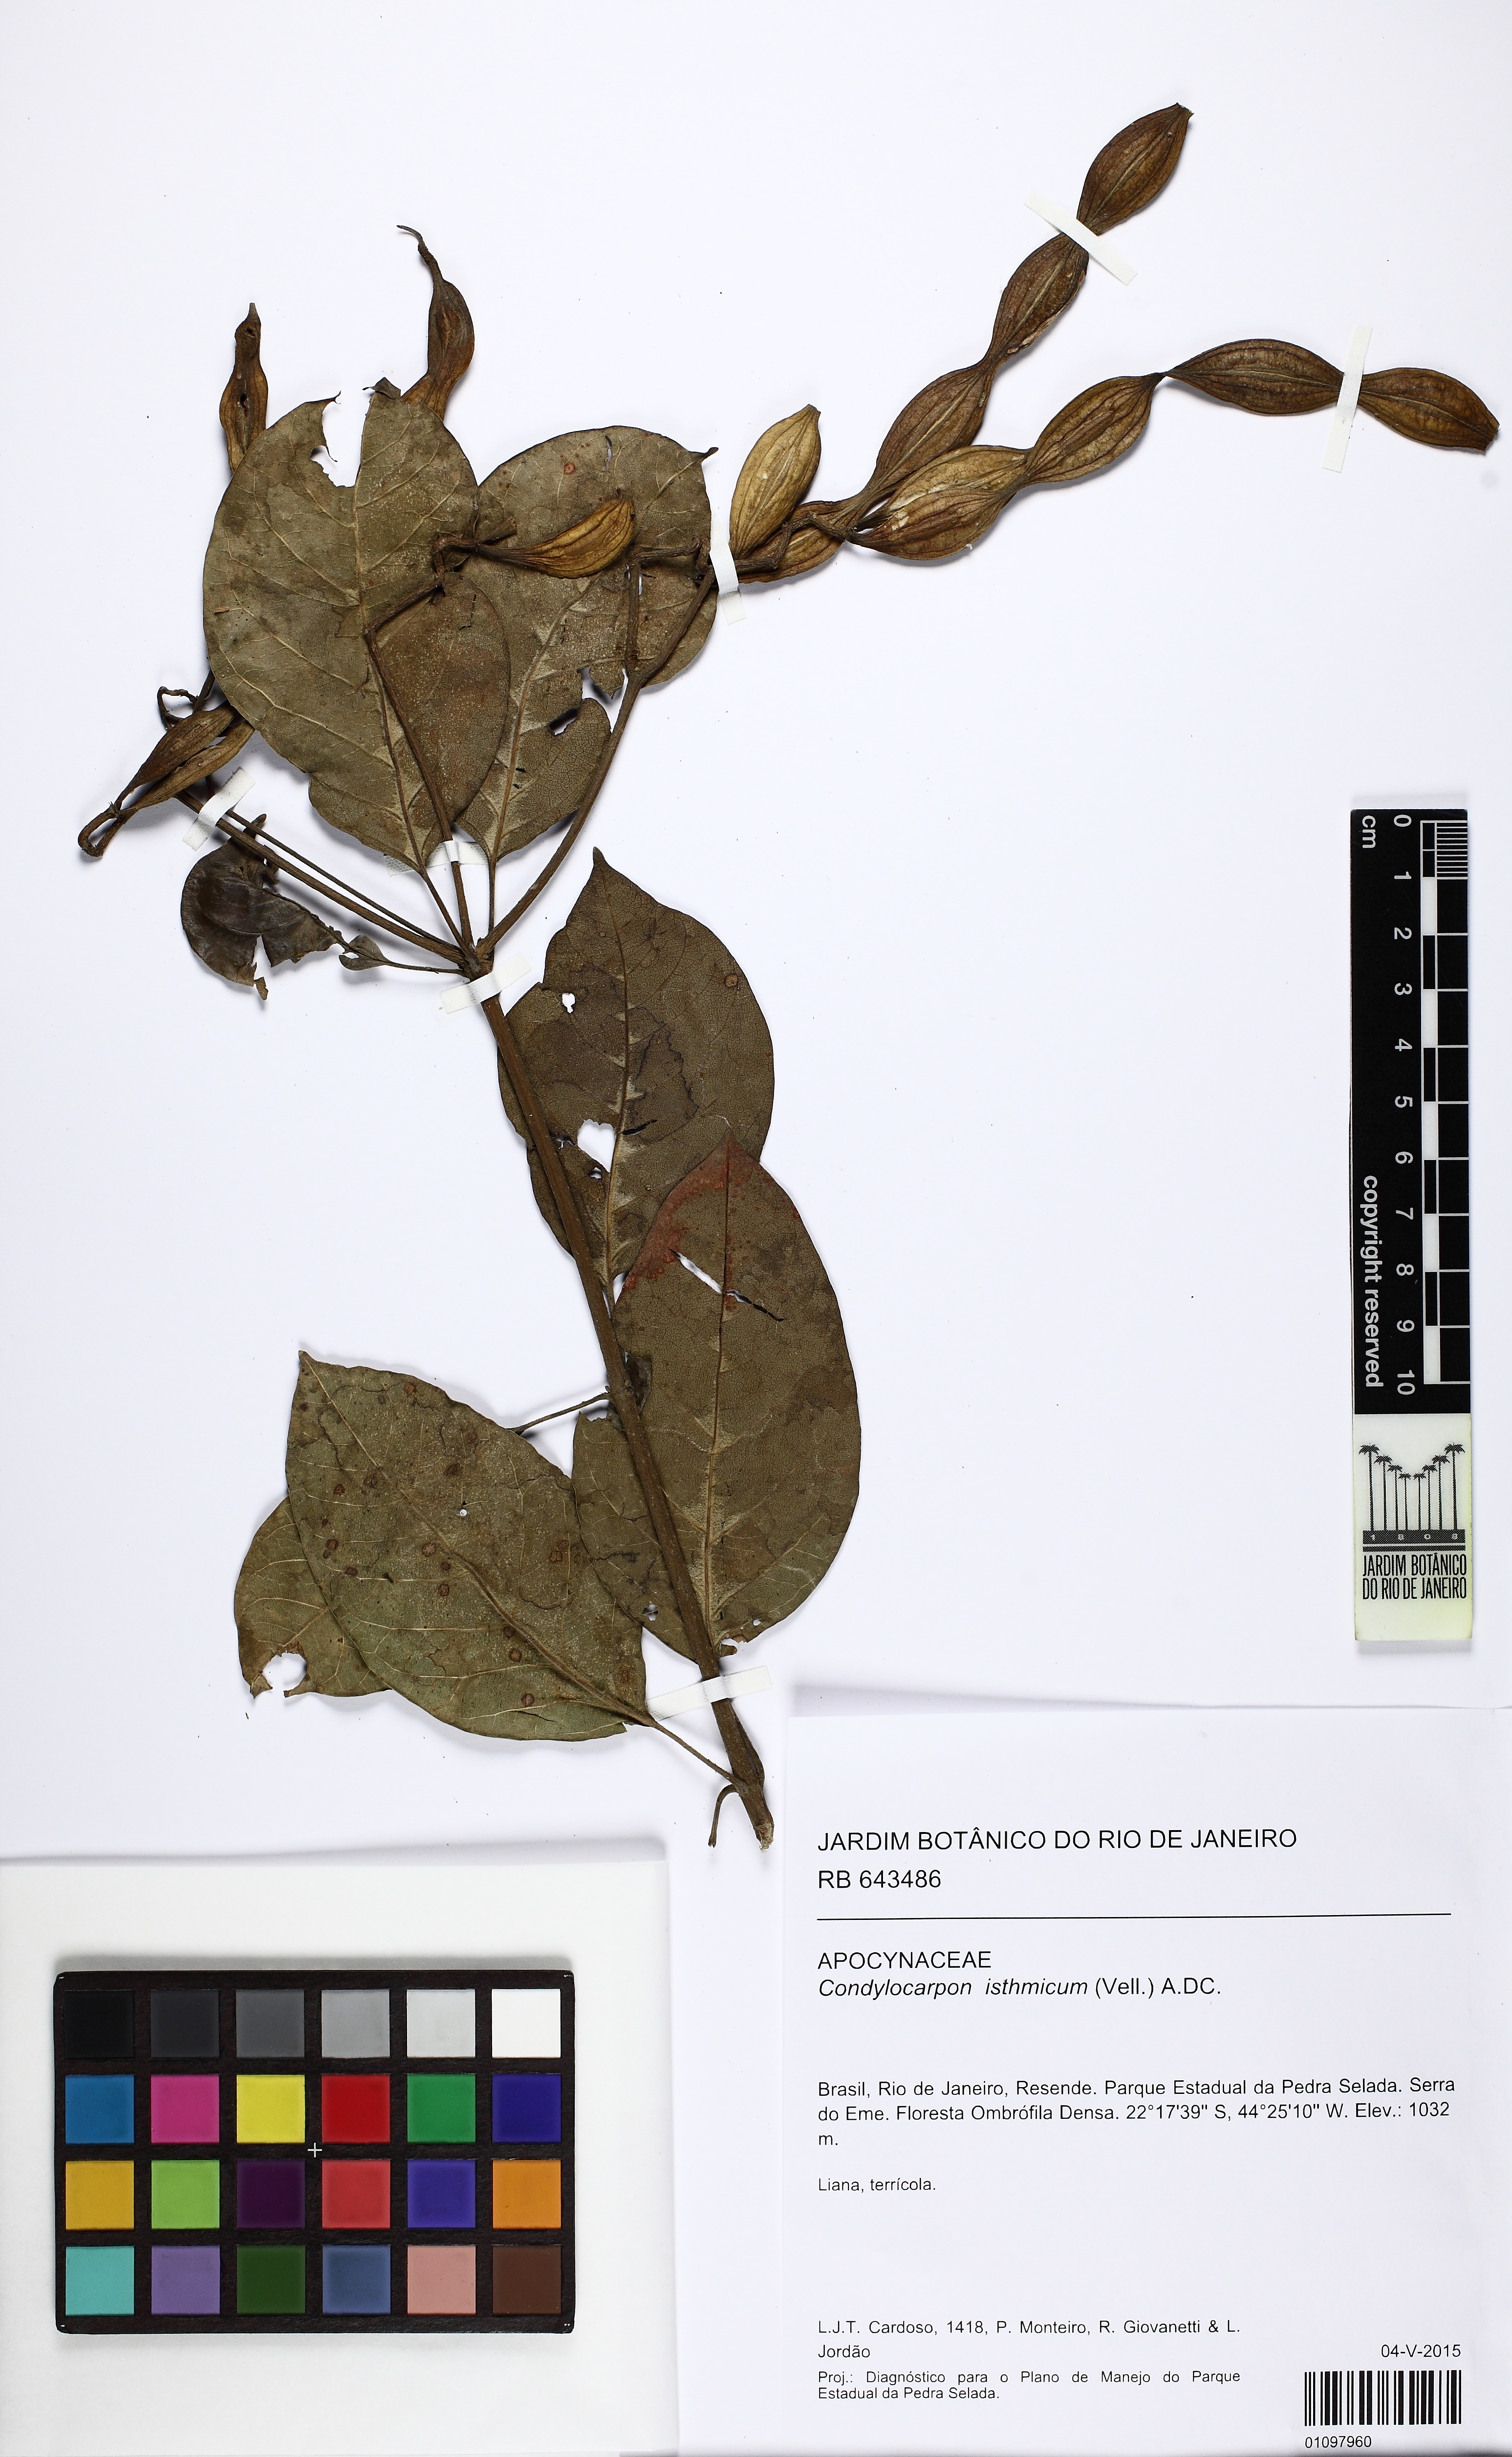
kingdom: Plantae
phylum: Tracheophyta
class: Magnoliopsida
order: Gentianales
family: Apocynaceae
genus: Condylocarpon
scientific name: Condylocarpon isthmicum
